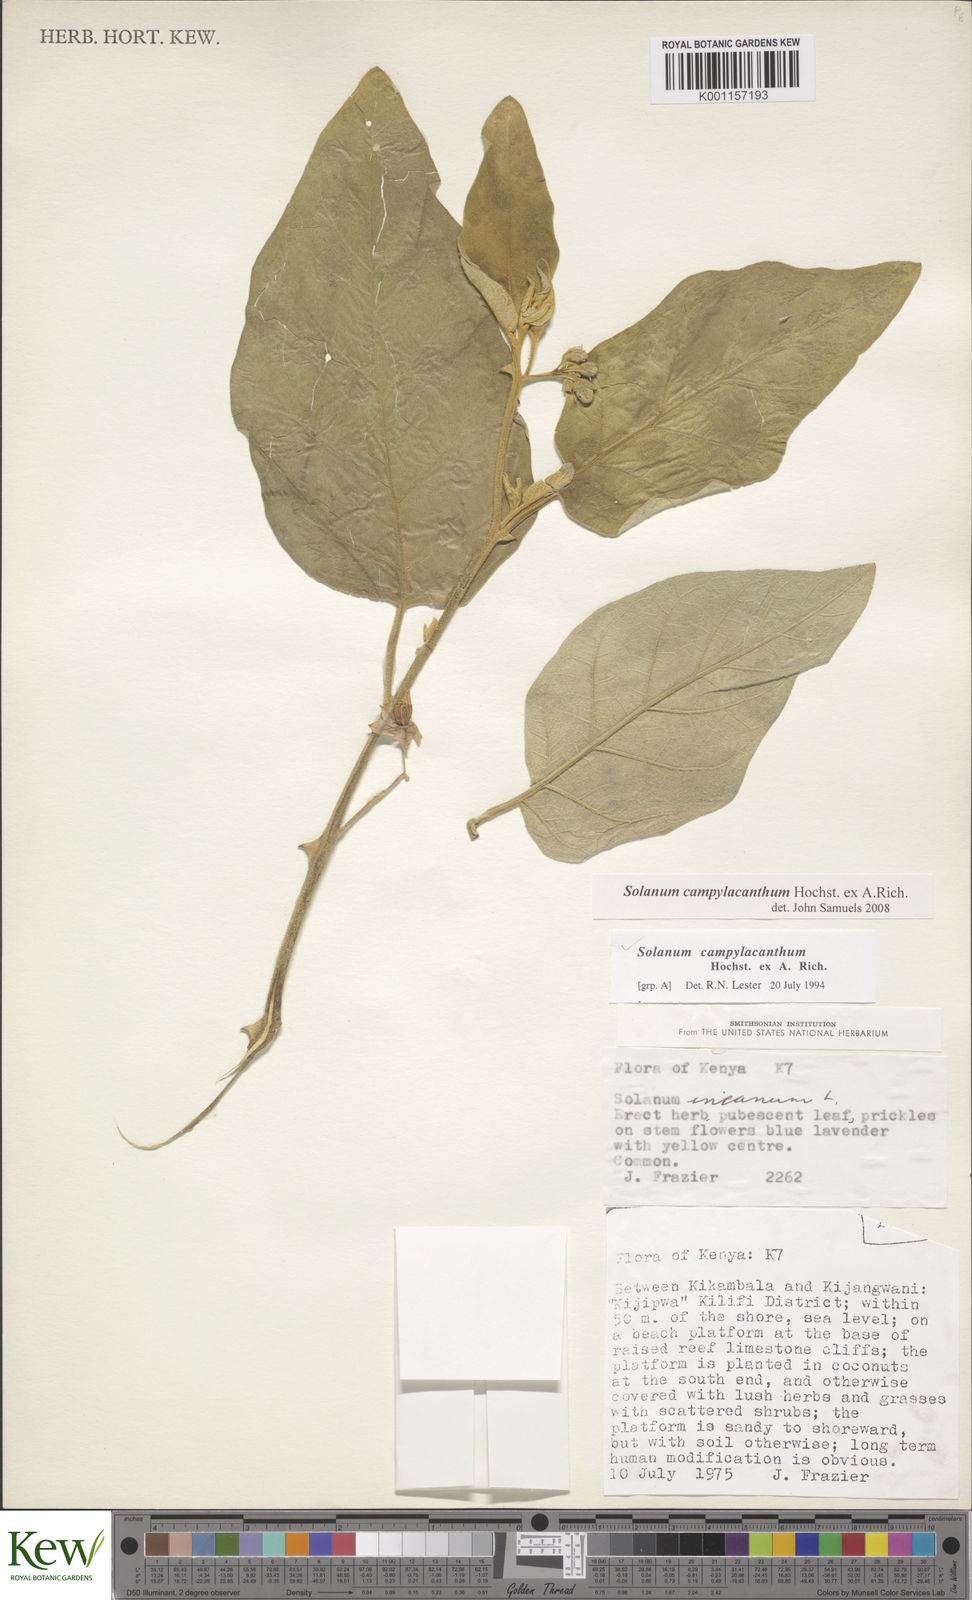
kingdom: Plantae
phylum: Tracheophyta
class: Magnoliopsida
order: Solanales
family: Solanaceae
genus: Solanum
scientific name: Solanum campylacanthum
